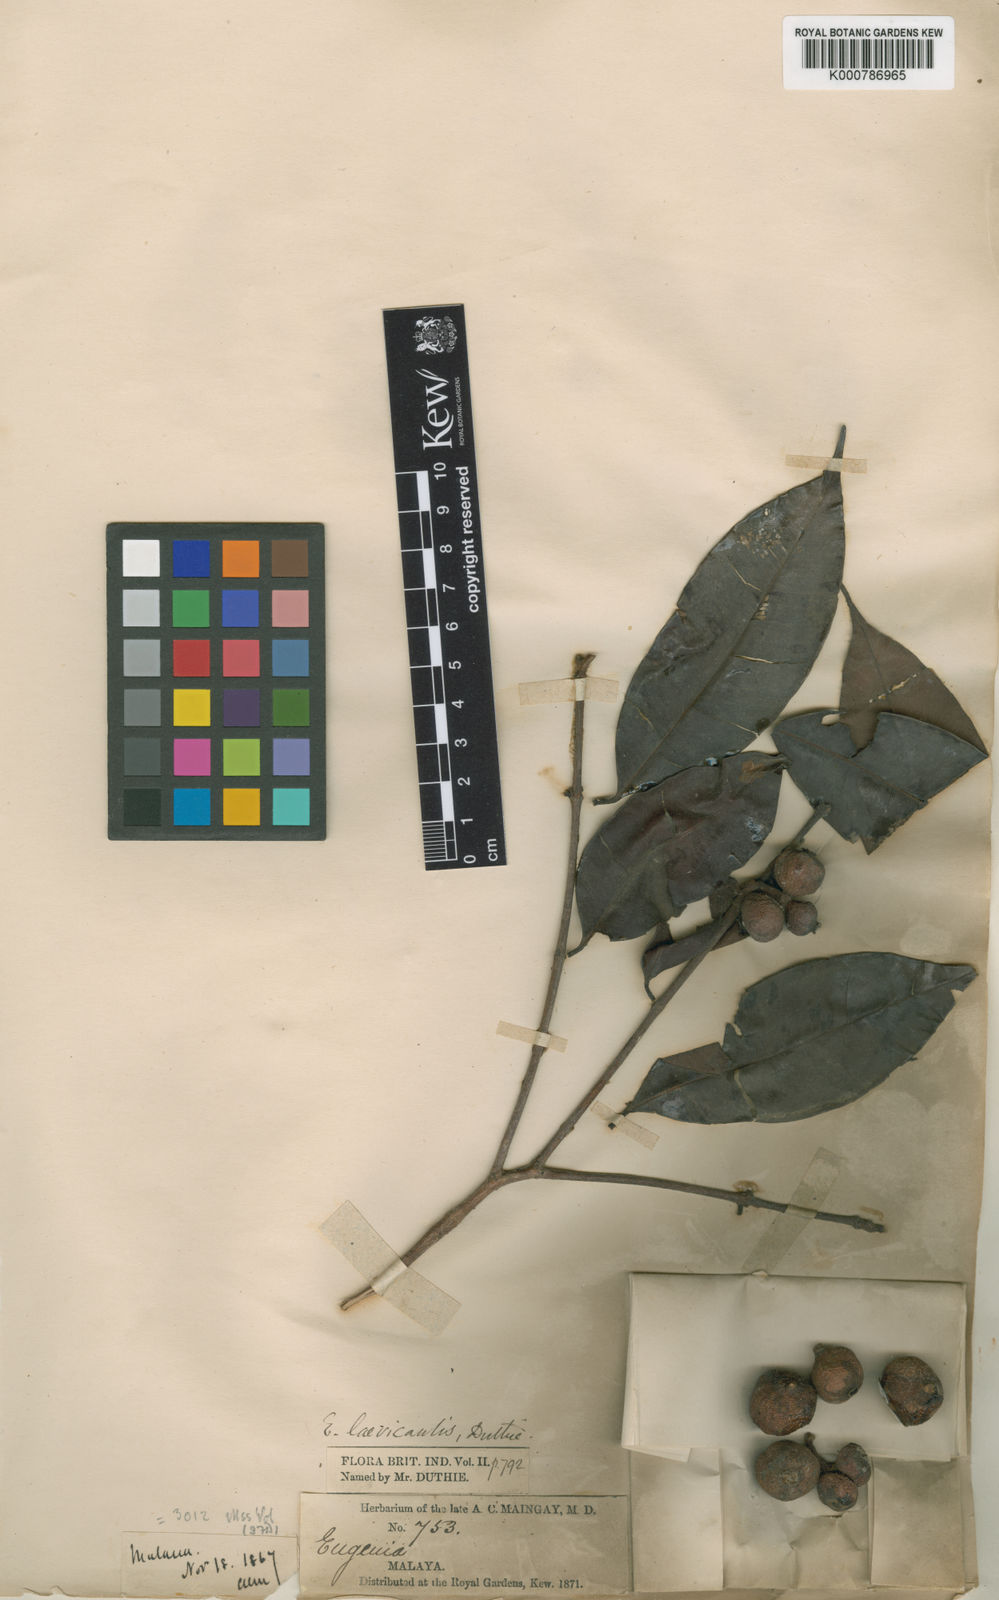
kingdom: Plantae
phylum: Tracheophyta
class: Magnoliopsida
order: Myrtales
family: Myrtaceae
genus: Syzygium
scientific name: Syzygium oblatum
